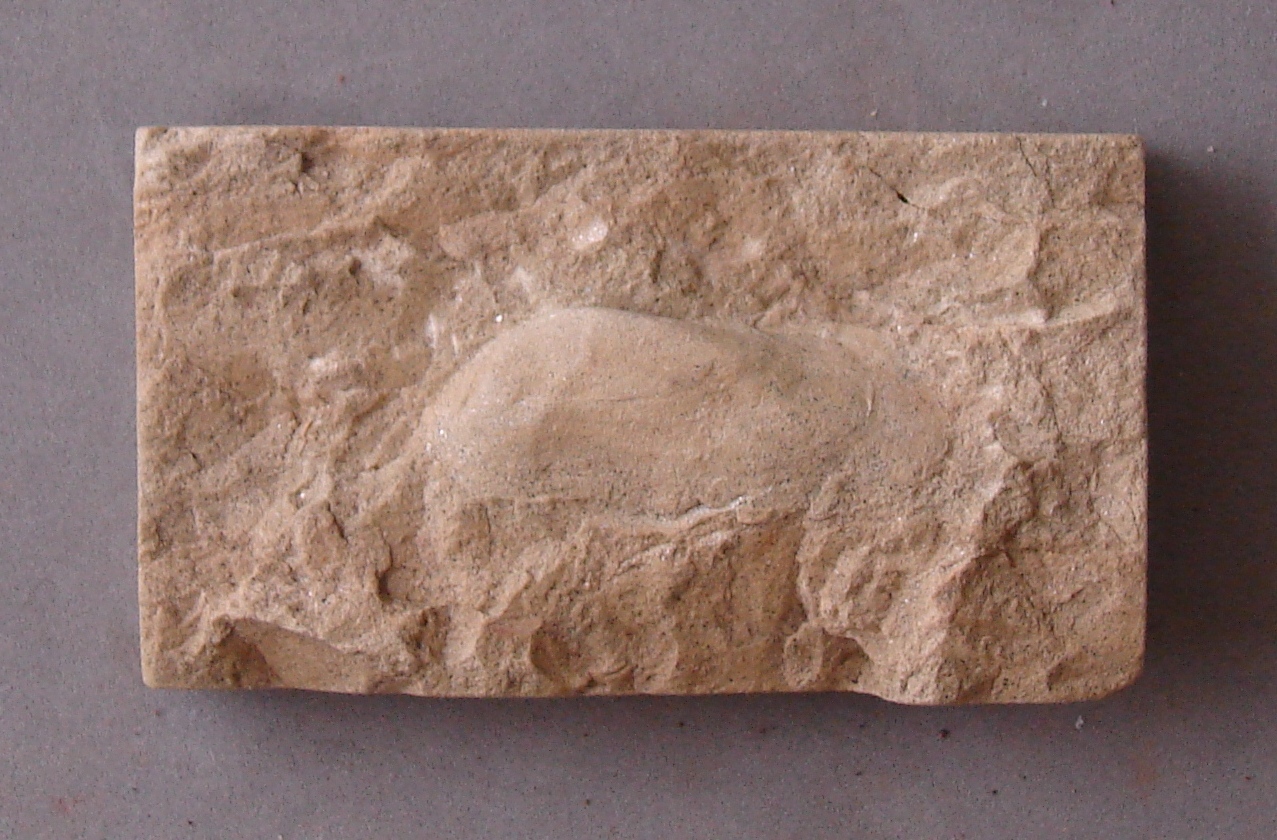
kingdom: Animalia
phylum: Mollusca
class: Bivalvia
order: Venerida
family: Kalenteridae
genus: Myoconcha
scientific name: Myoconcha
